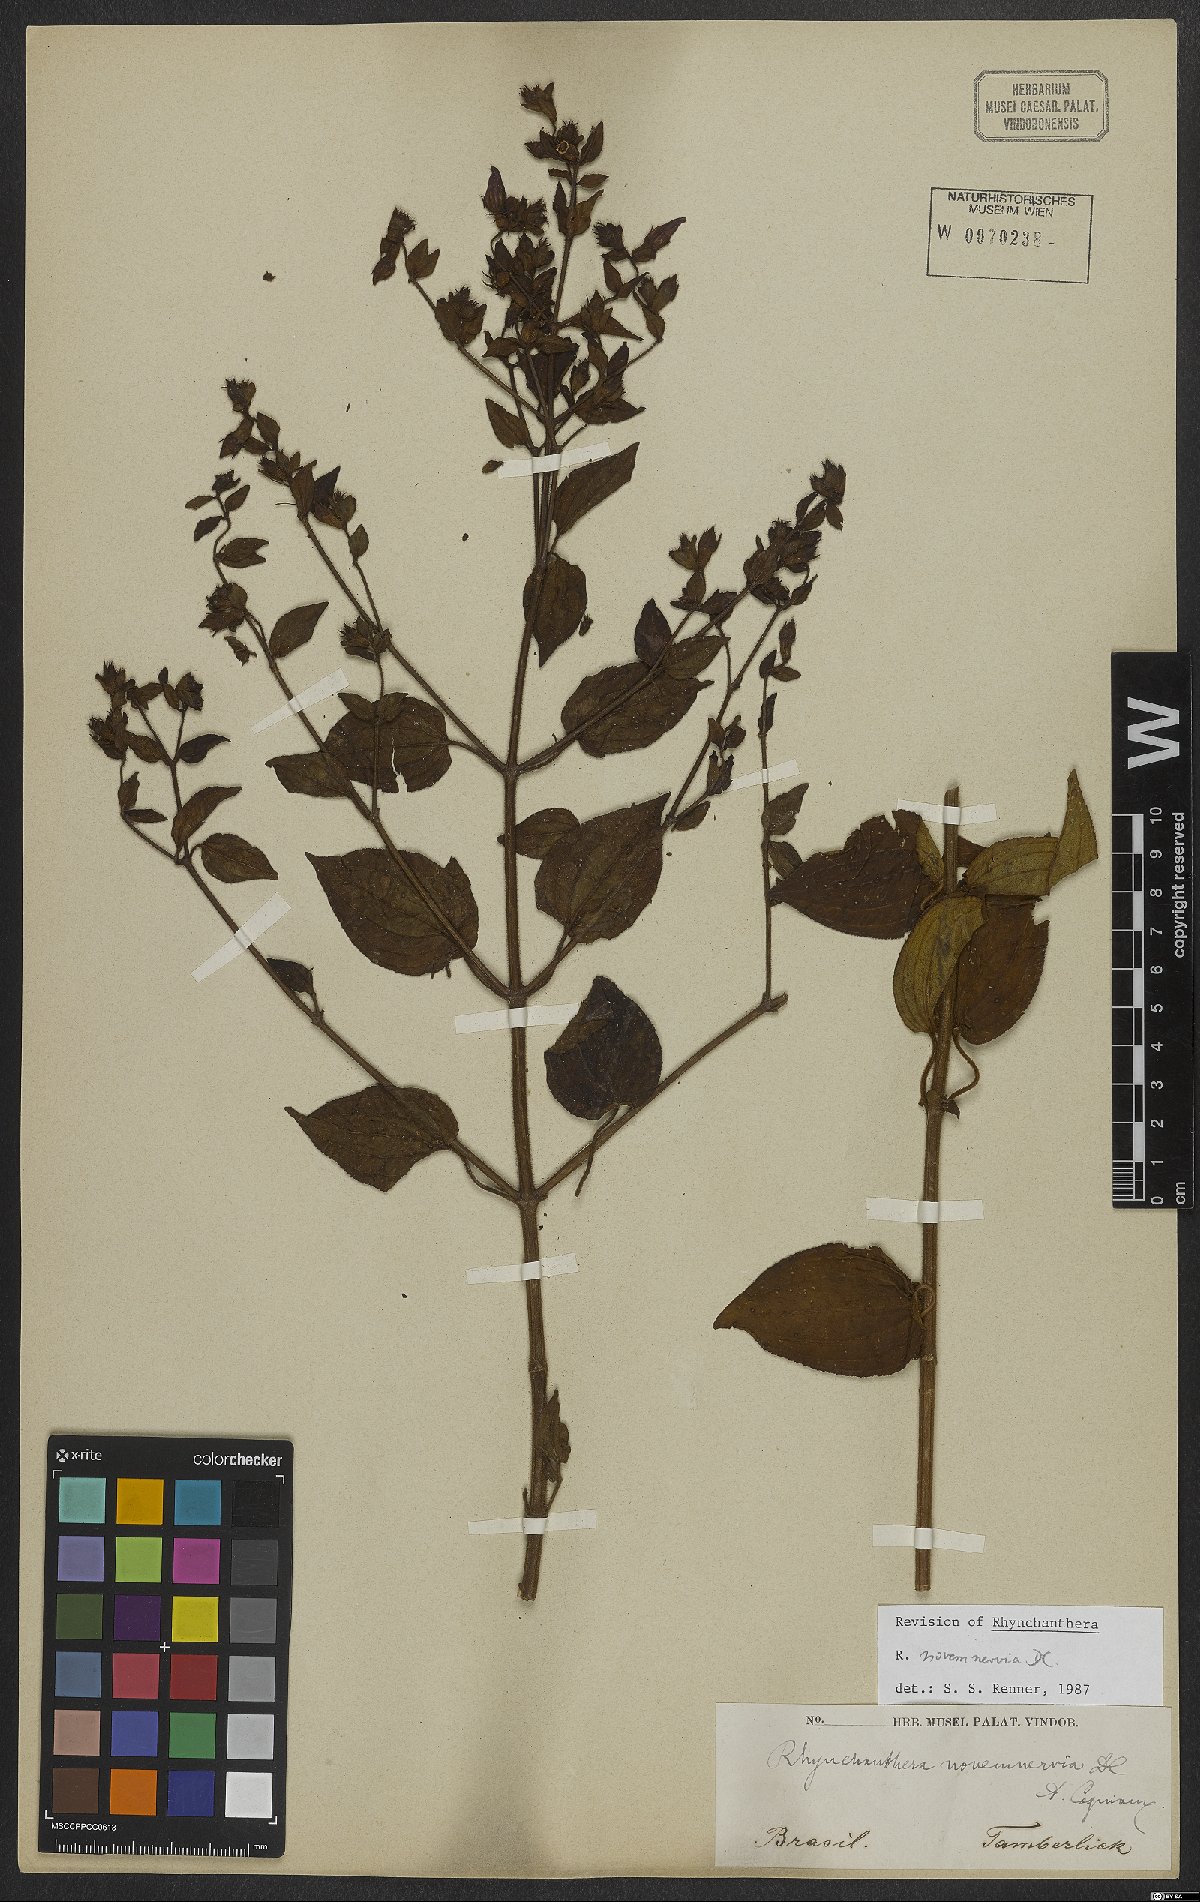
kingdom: Plantae
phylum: Tracheophyta
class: Magnoliopsida
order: Myrtales
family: Melastomataceae
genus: Rhynchanthera
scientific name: Rhynchanthera novemnervia
